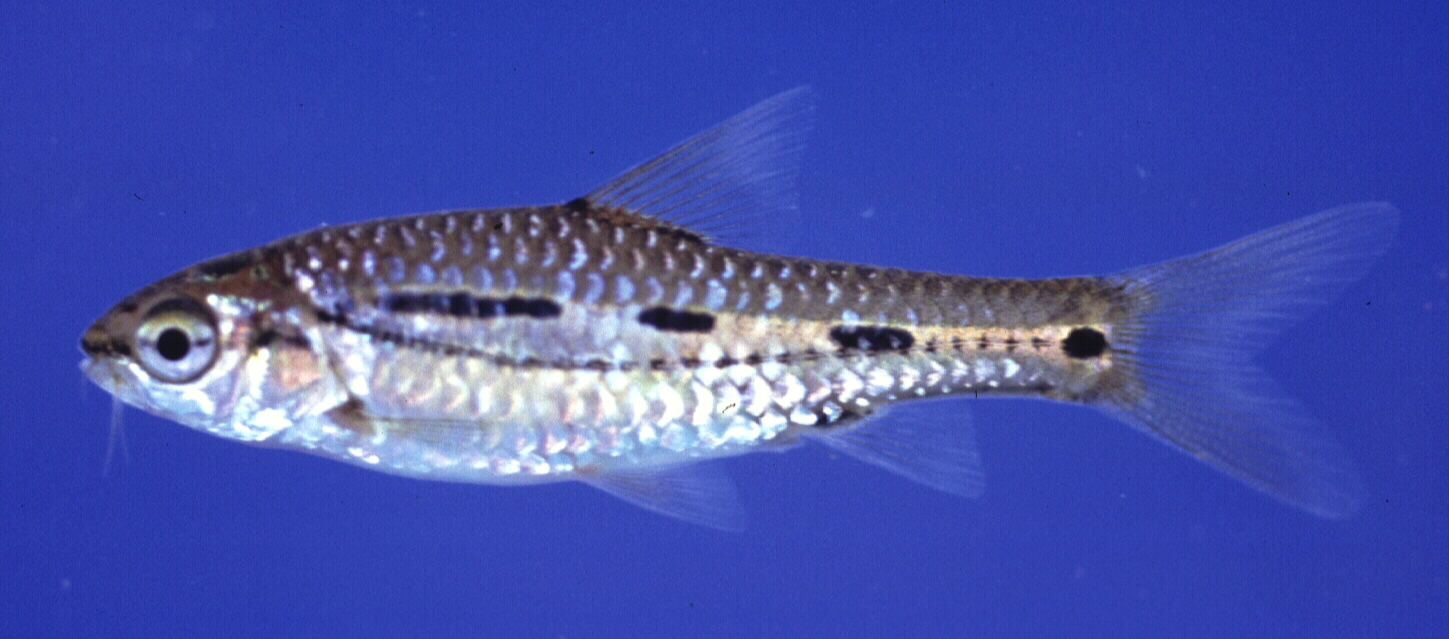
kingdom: Animalia
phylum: Chordata
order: Cypriniformes
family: Cyprinidae
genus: Enteromius
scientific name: Enteromius bifrenatus
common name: Hyphen barb
